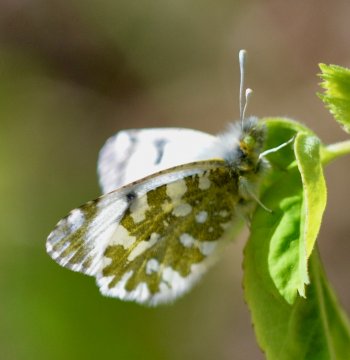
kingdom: Animalia
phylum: Arthropoda
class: Insecta
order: Lepidoptera
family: Pieridae
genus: Euchloe
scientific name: Euchloe ausonides
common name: Large Marble
